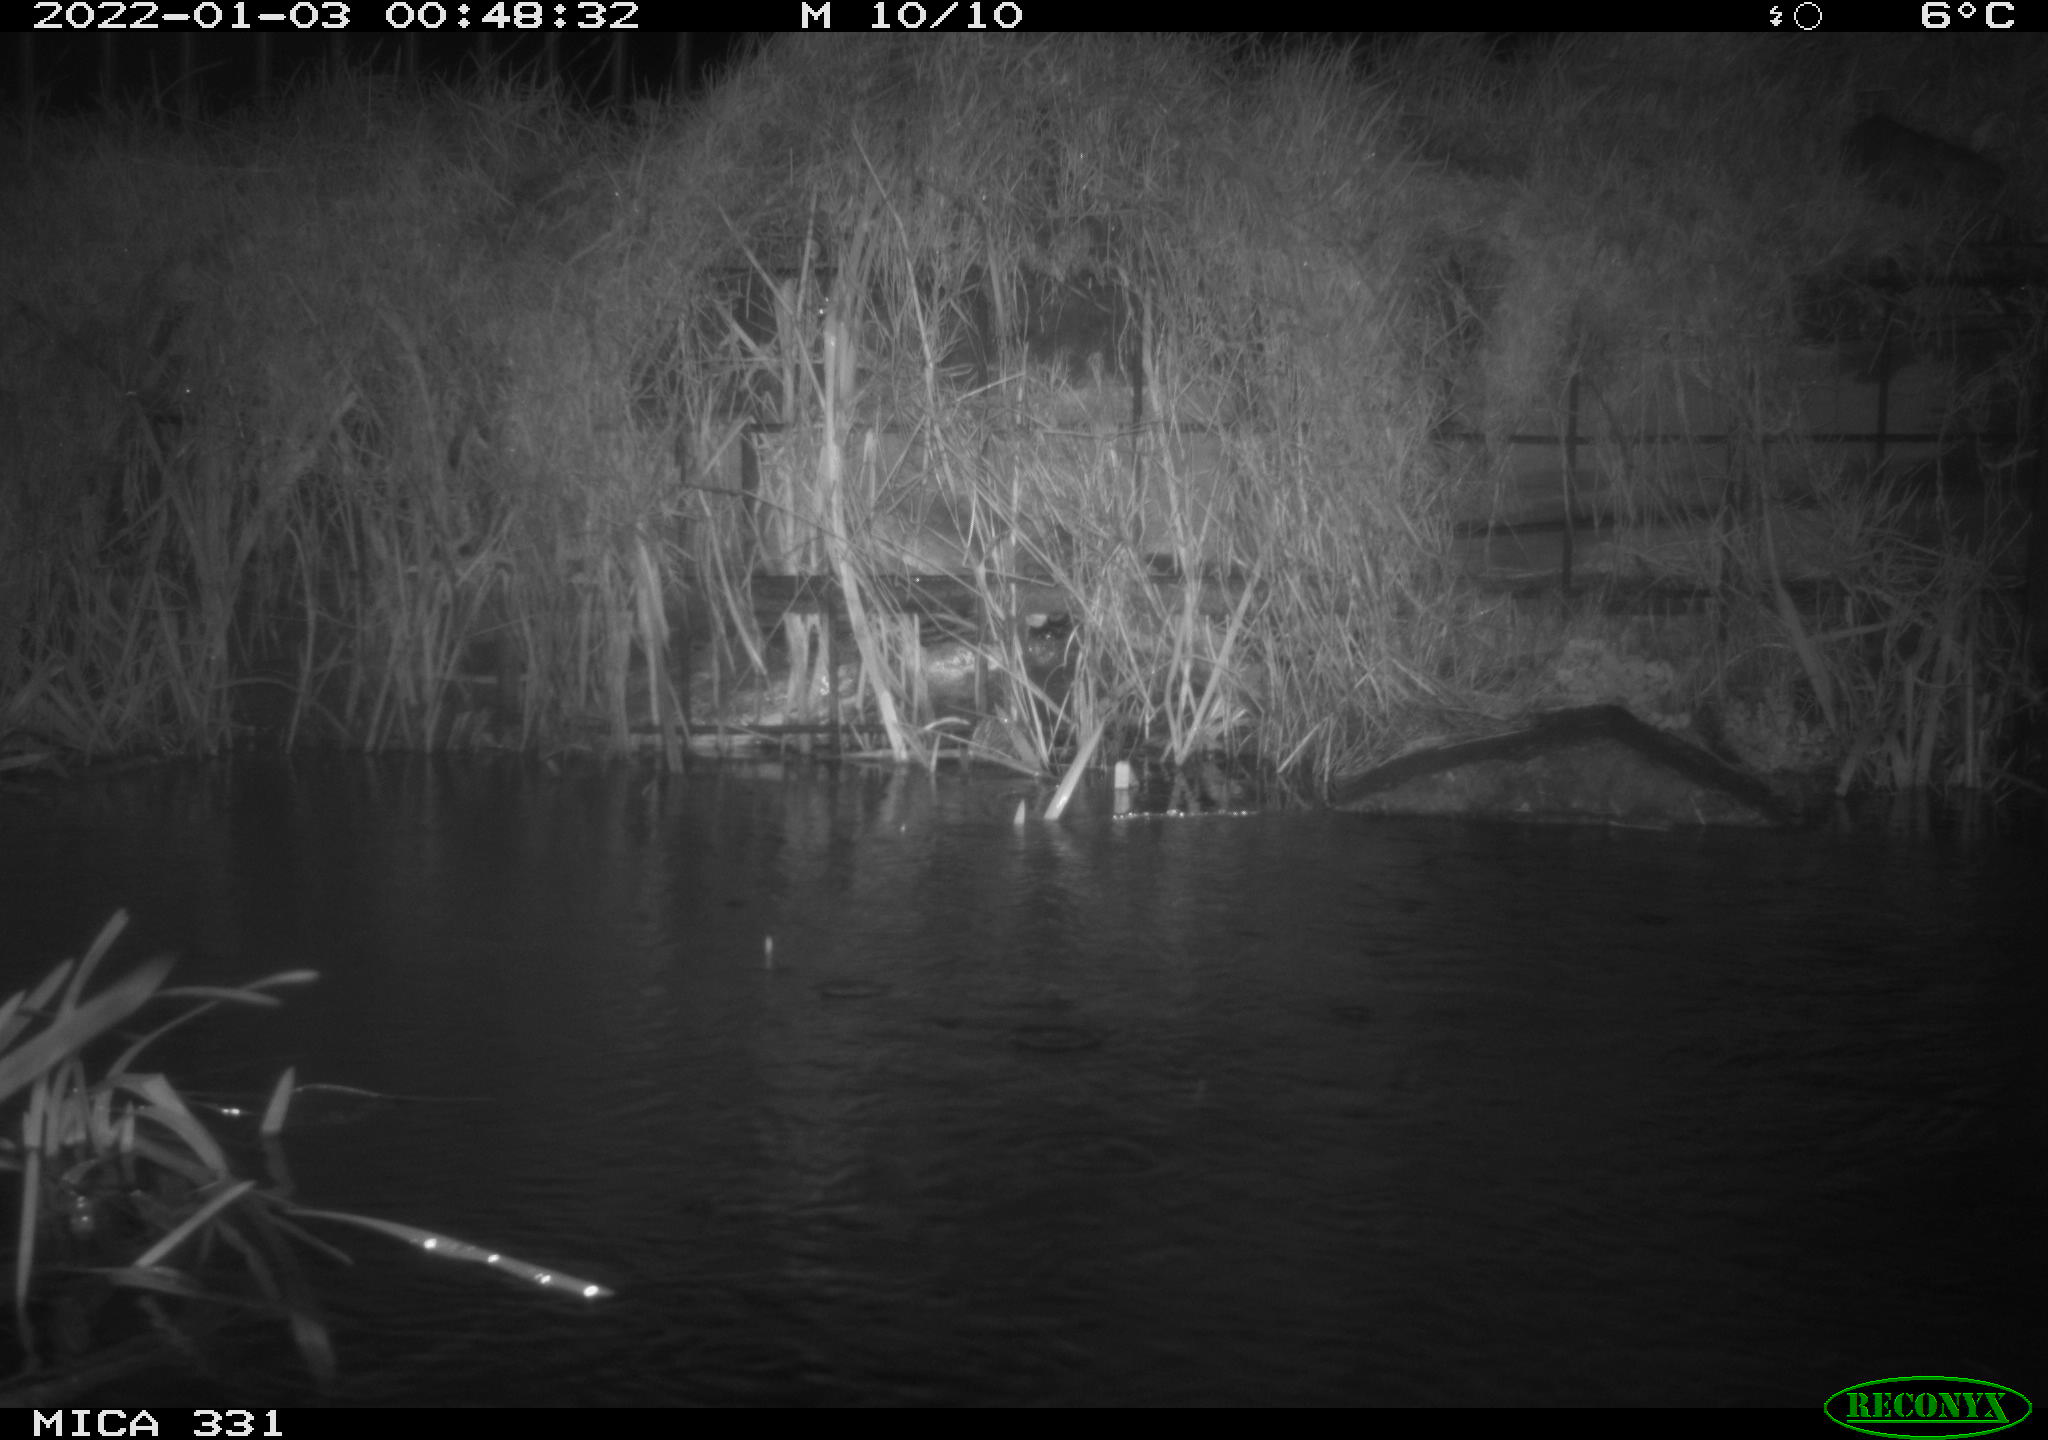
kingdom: Animalia
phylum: Chordata
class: Mammalia
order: Rodentia
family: Muridae
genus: Rattus
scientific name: Rattus norvegicus
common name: Brown rat
